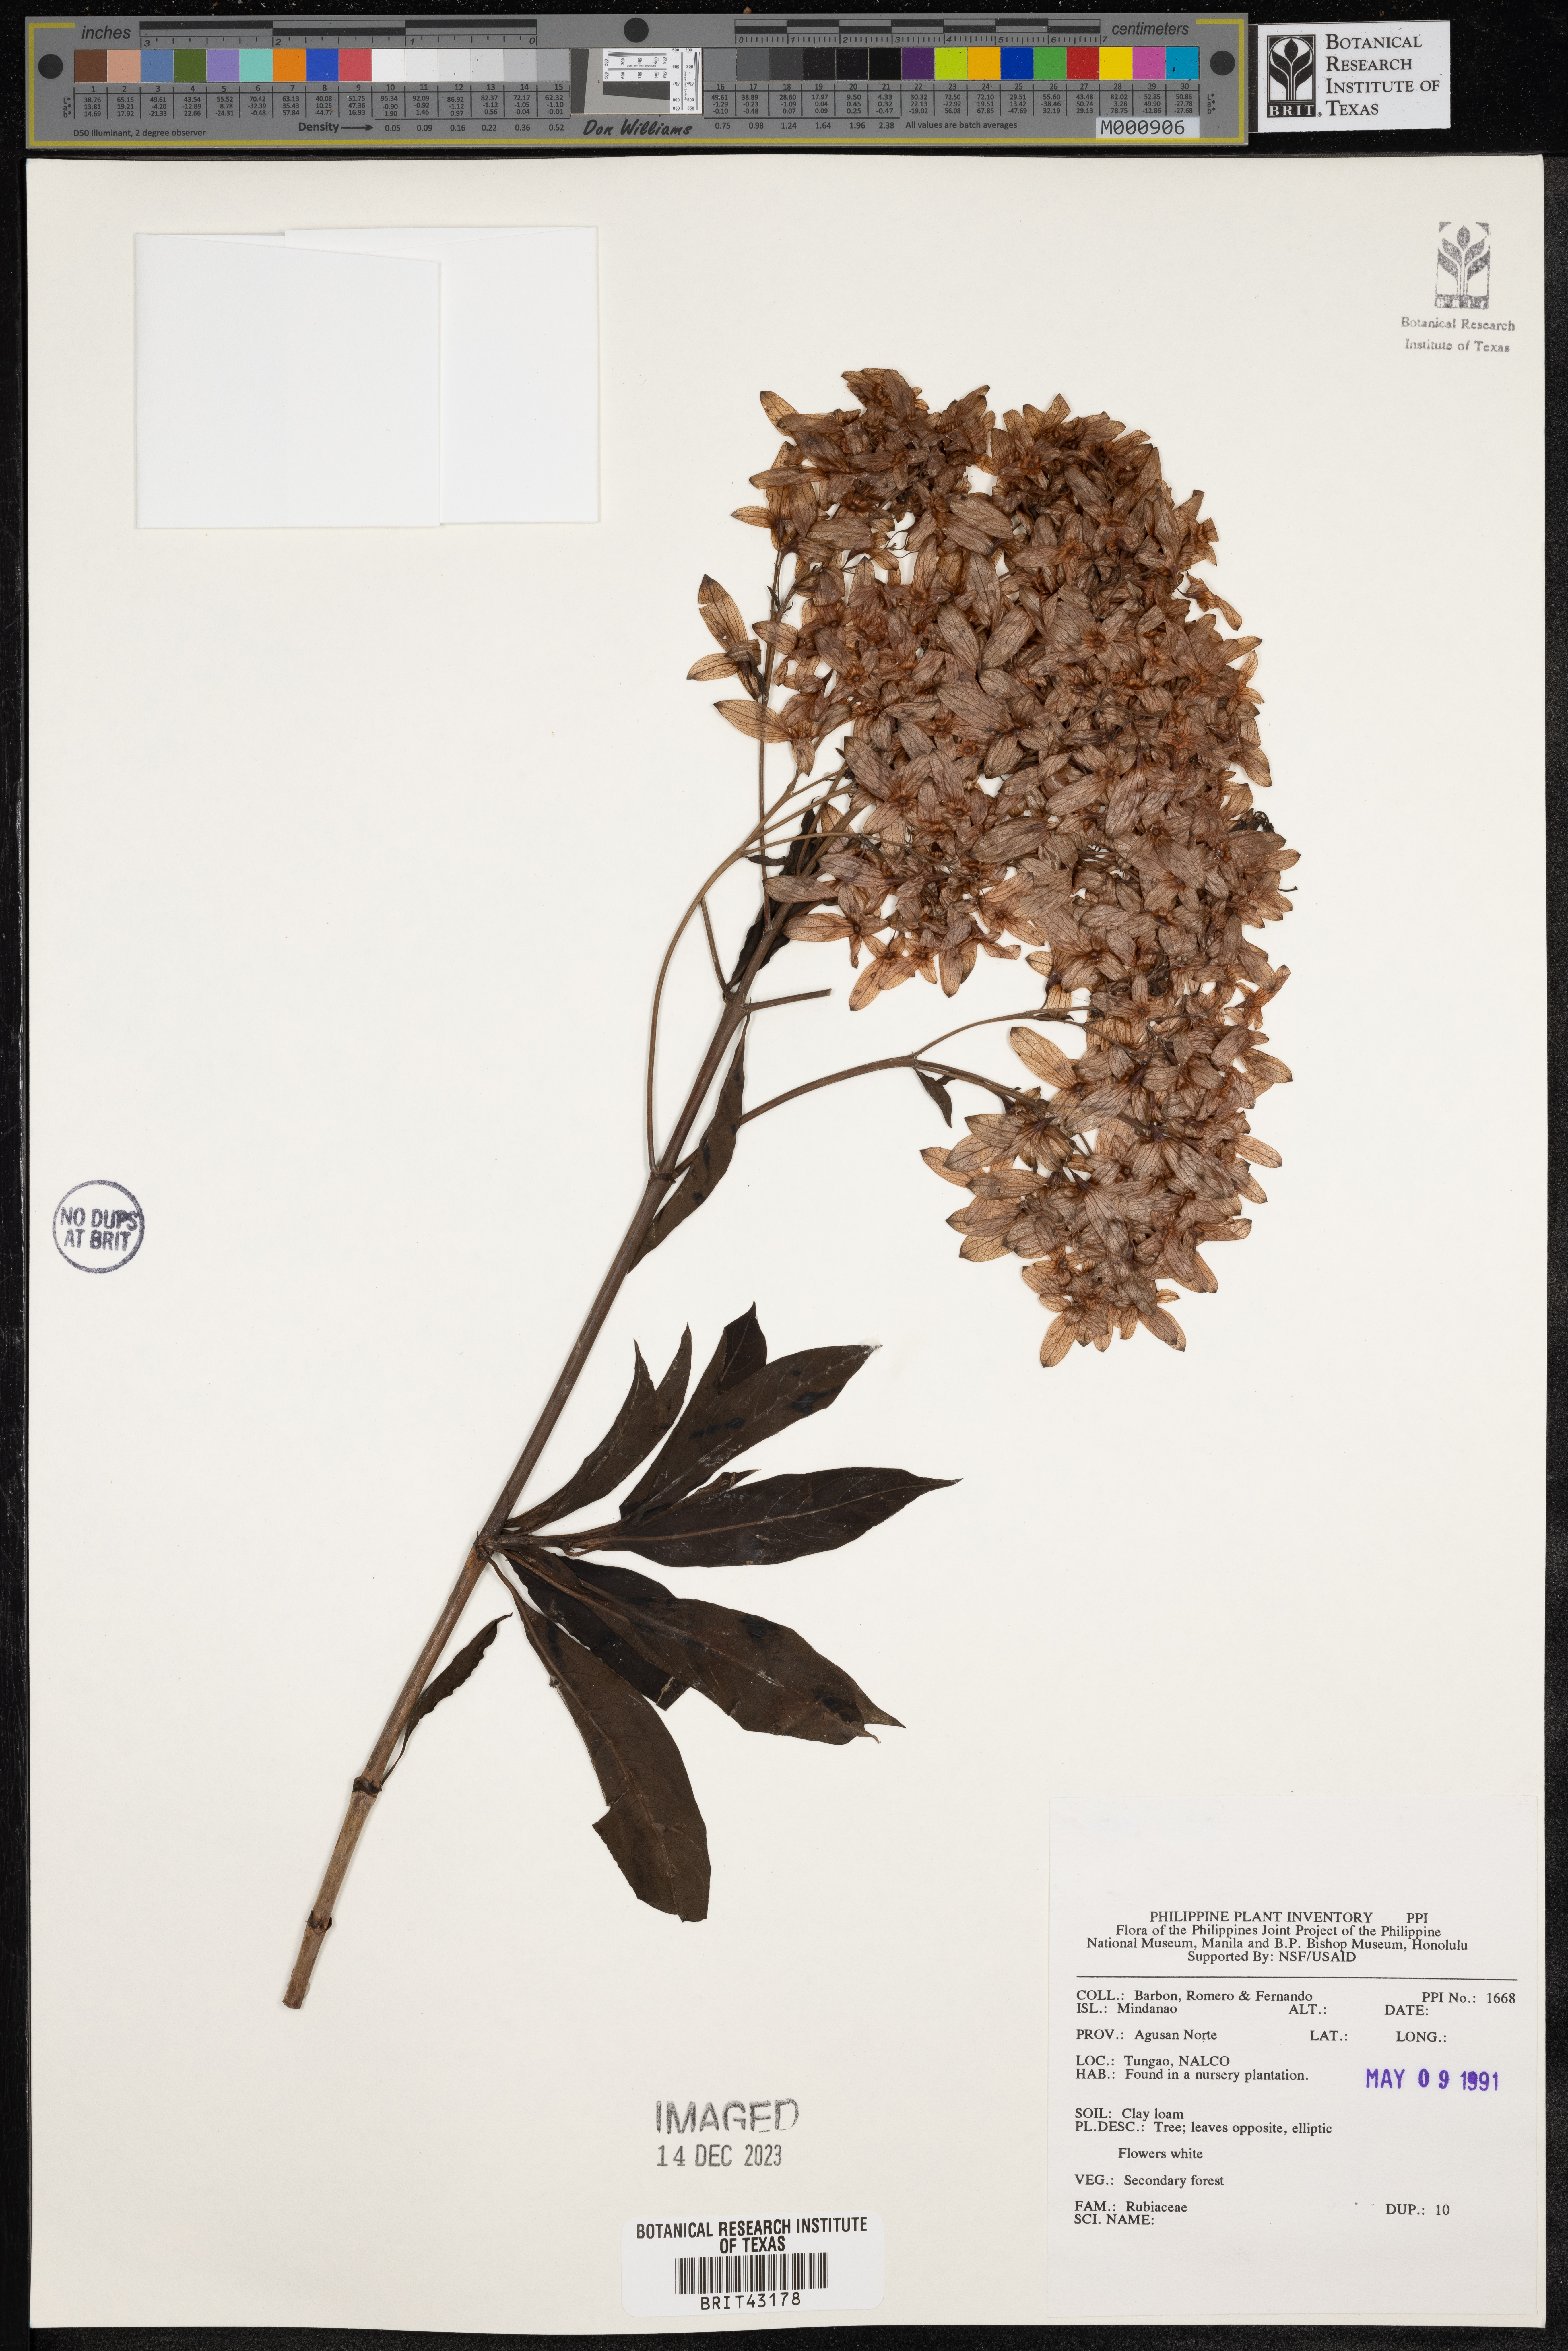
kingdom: Plantae
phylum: Tracheophyta
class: Magnoliopsida
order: Gentianales
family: Rubiaceae
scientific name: Rubiaceae
